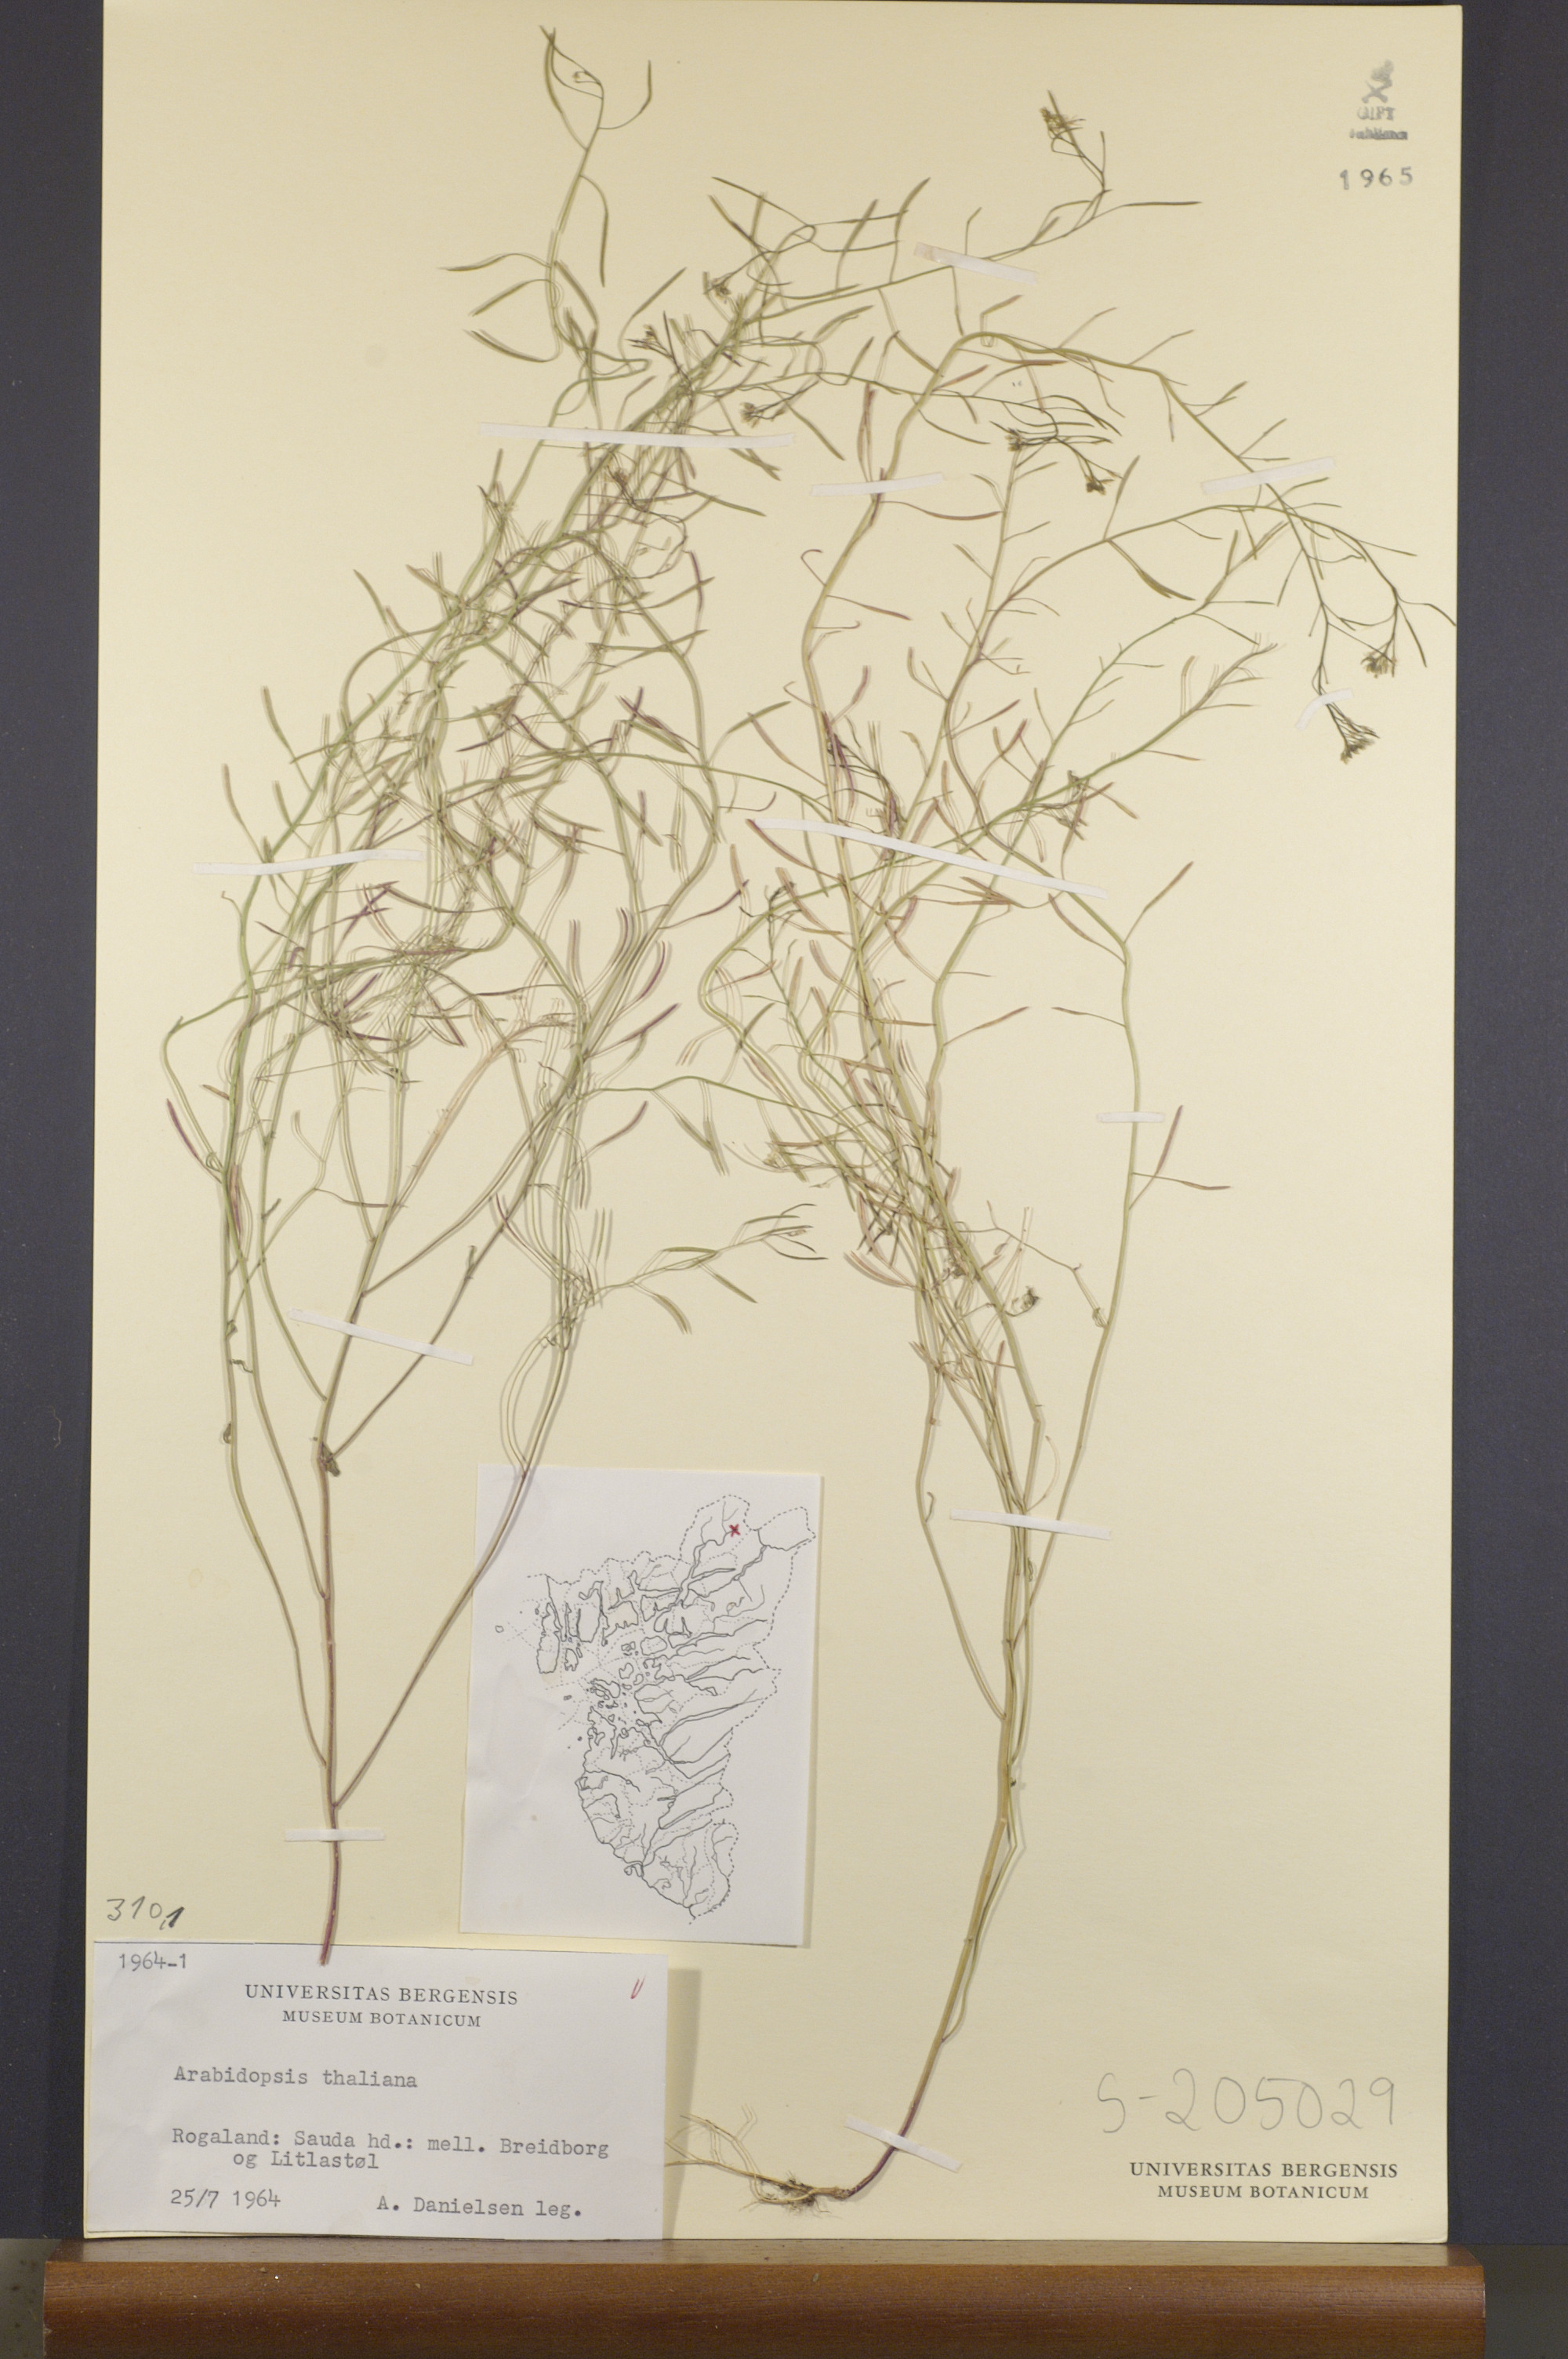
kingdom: Plantae
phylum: Tracheophyta
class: Magnoliopsida
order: Brassicales
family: Brassicaceae
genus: Arabidopsis
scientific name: Arabidopsis thaliana
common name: Thale cress
